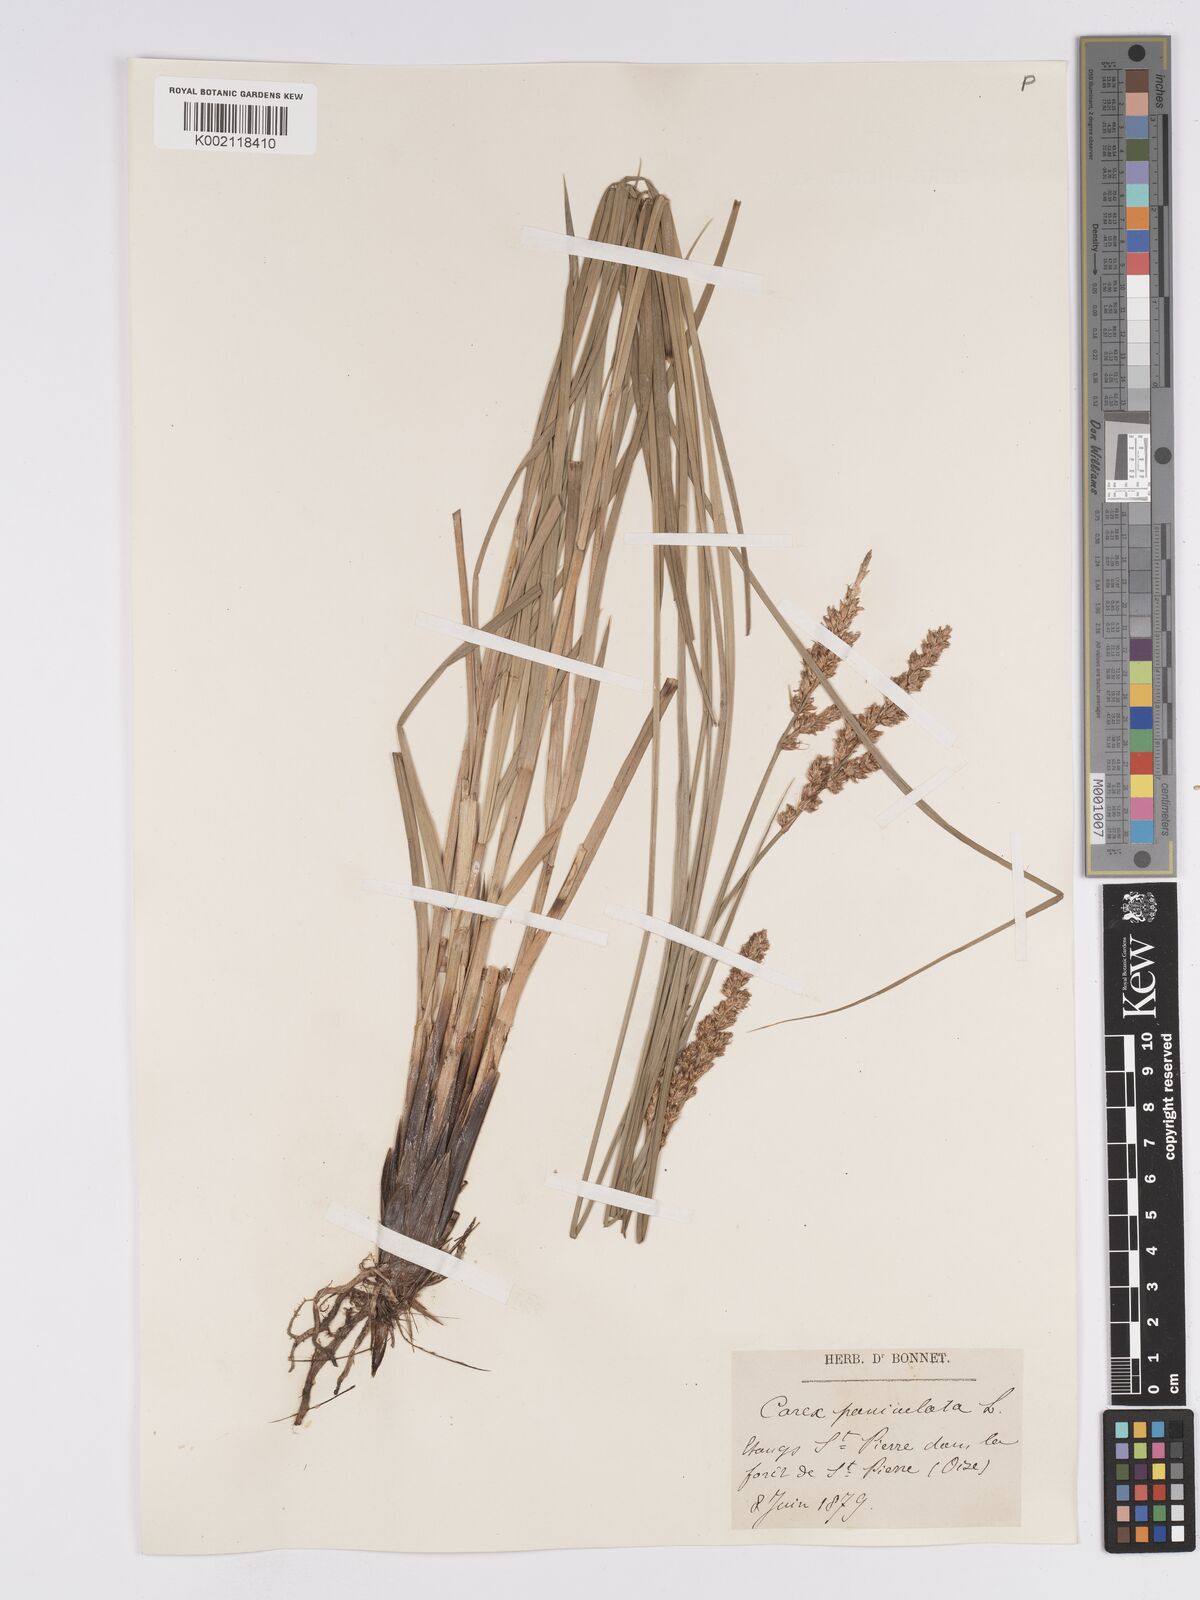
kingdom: Plantae
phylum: Tracheophyta
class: Liliopsida
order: Poales
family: Cyperaceae
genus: Carex
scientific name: Carex paniculata
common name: Greater tussock-sedge
